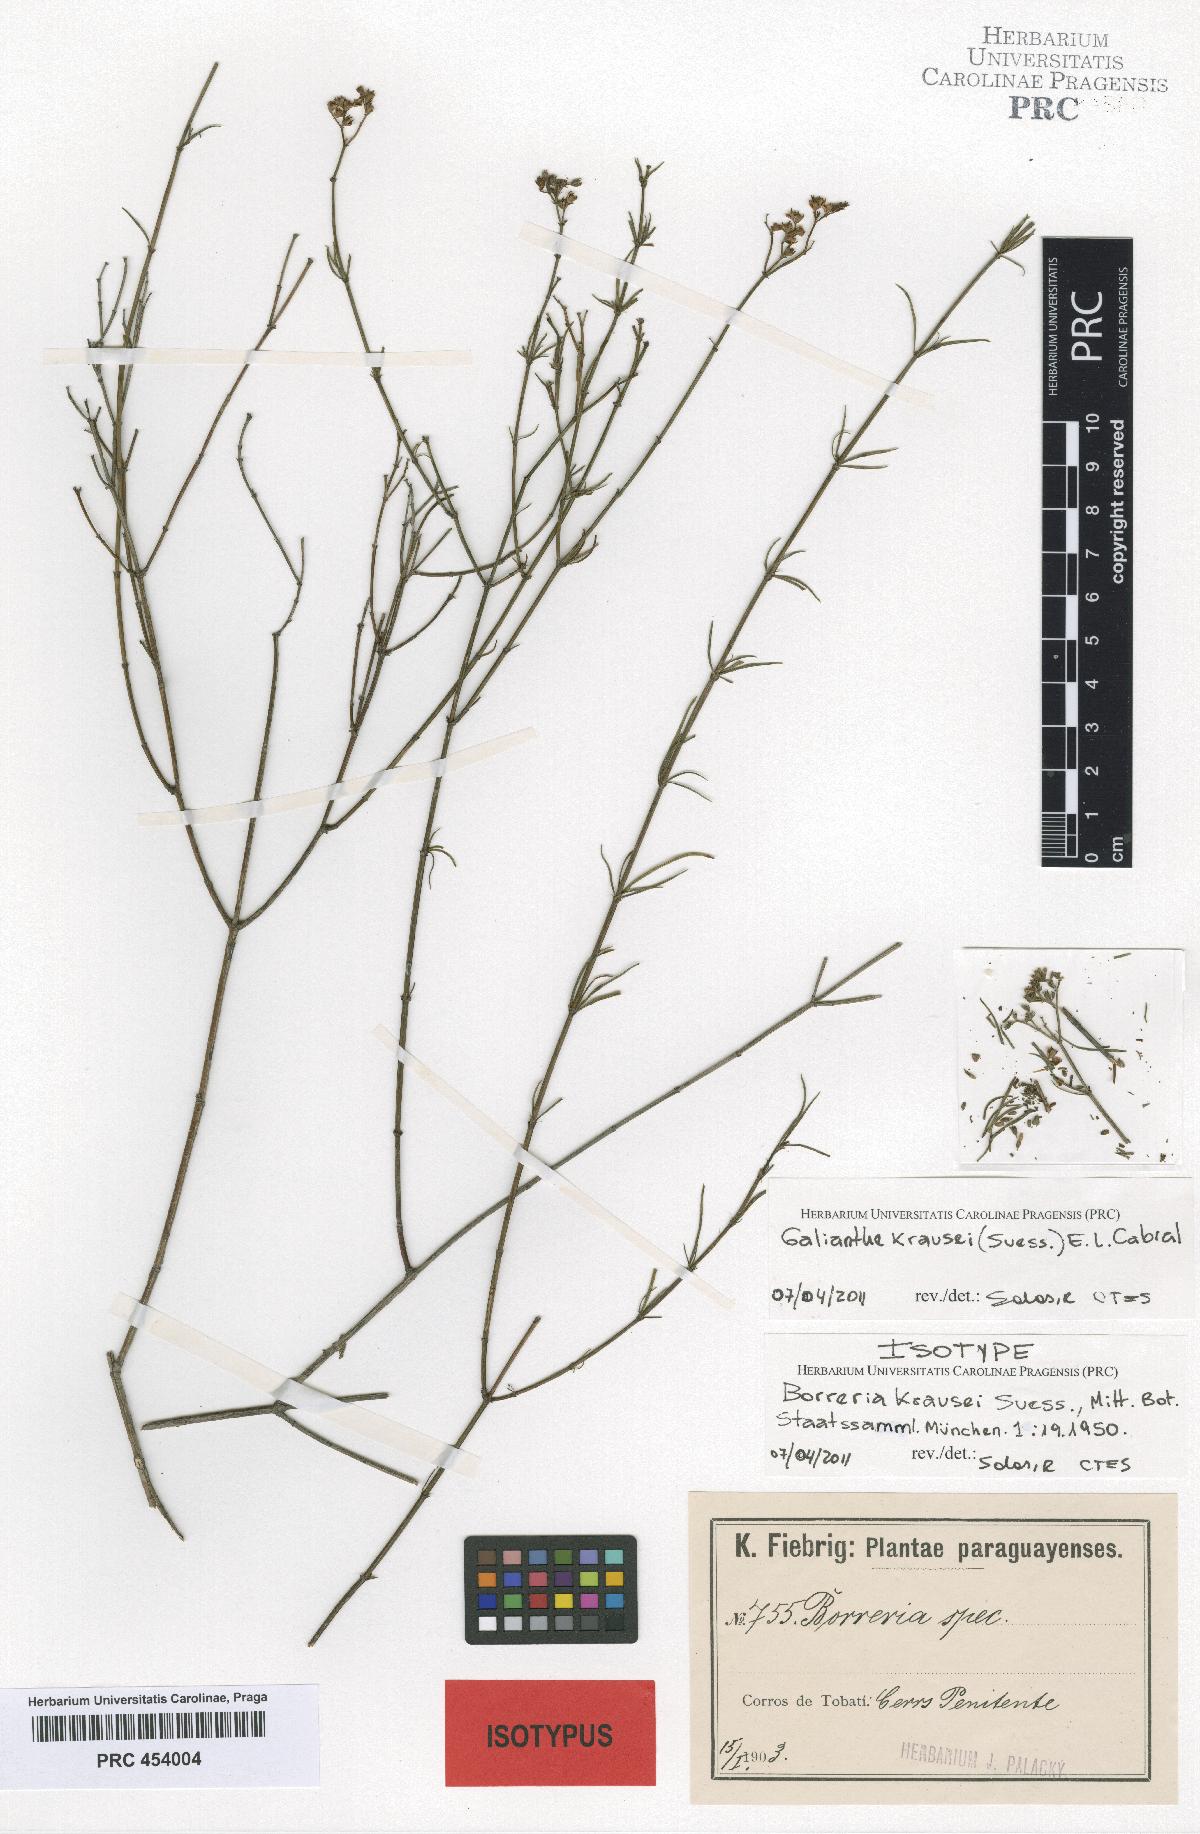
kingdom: Plantae
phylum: Tracheophyta
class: Magnoliopsida
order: Gentianales
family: Rubiaceae
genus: Galianthe
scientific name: Galianthe krausei
